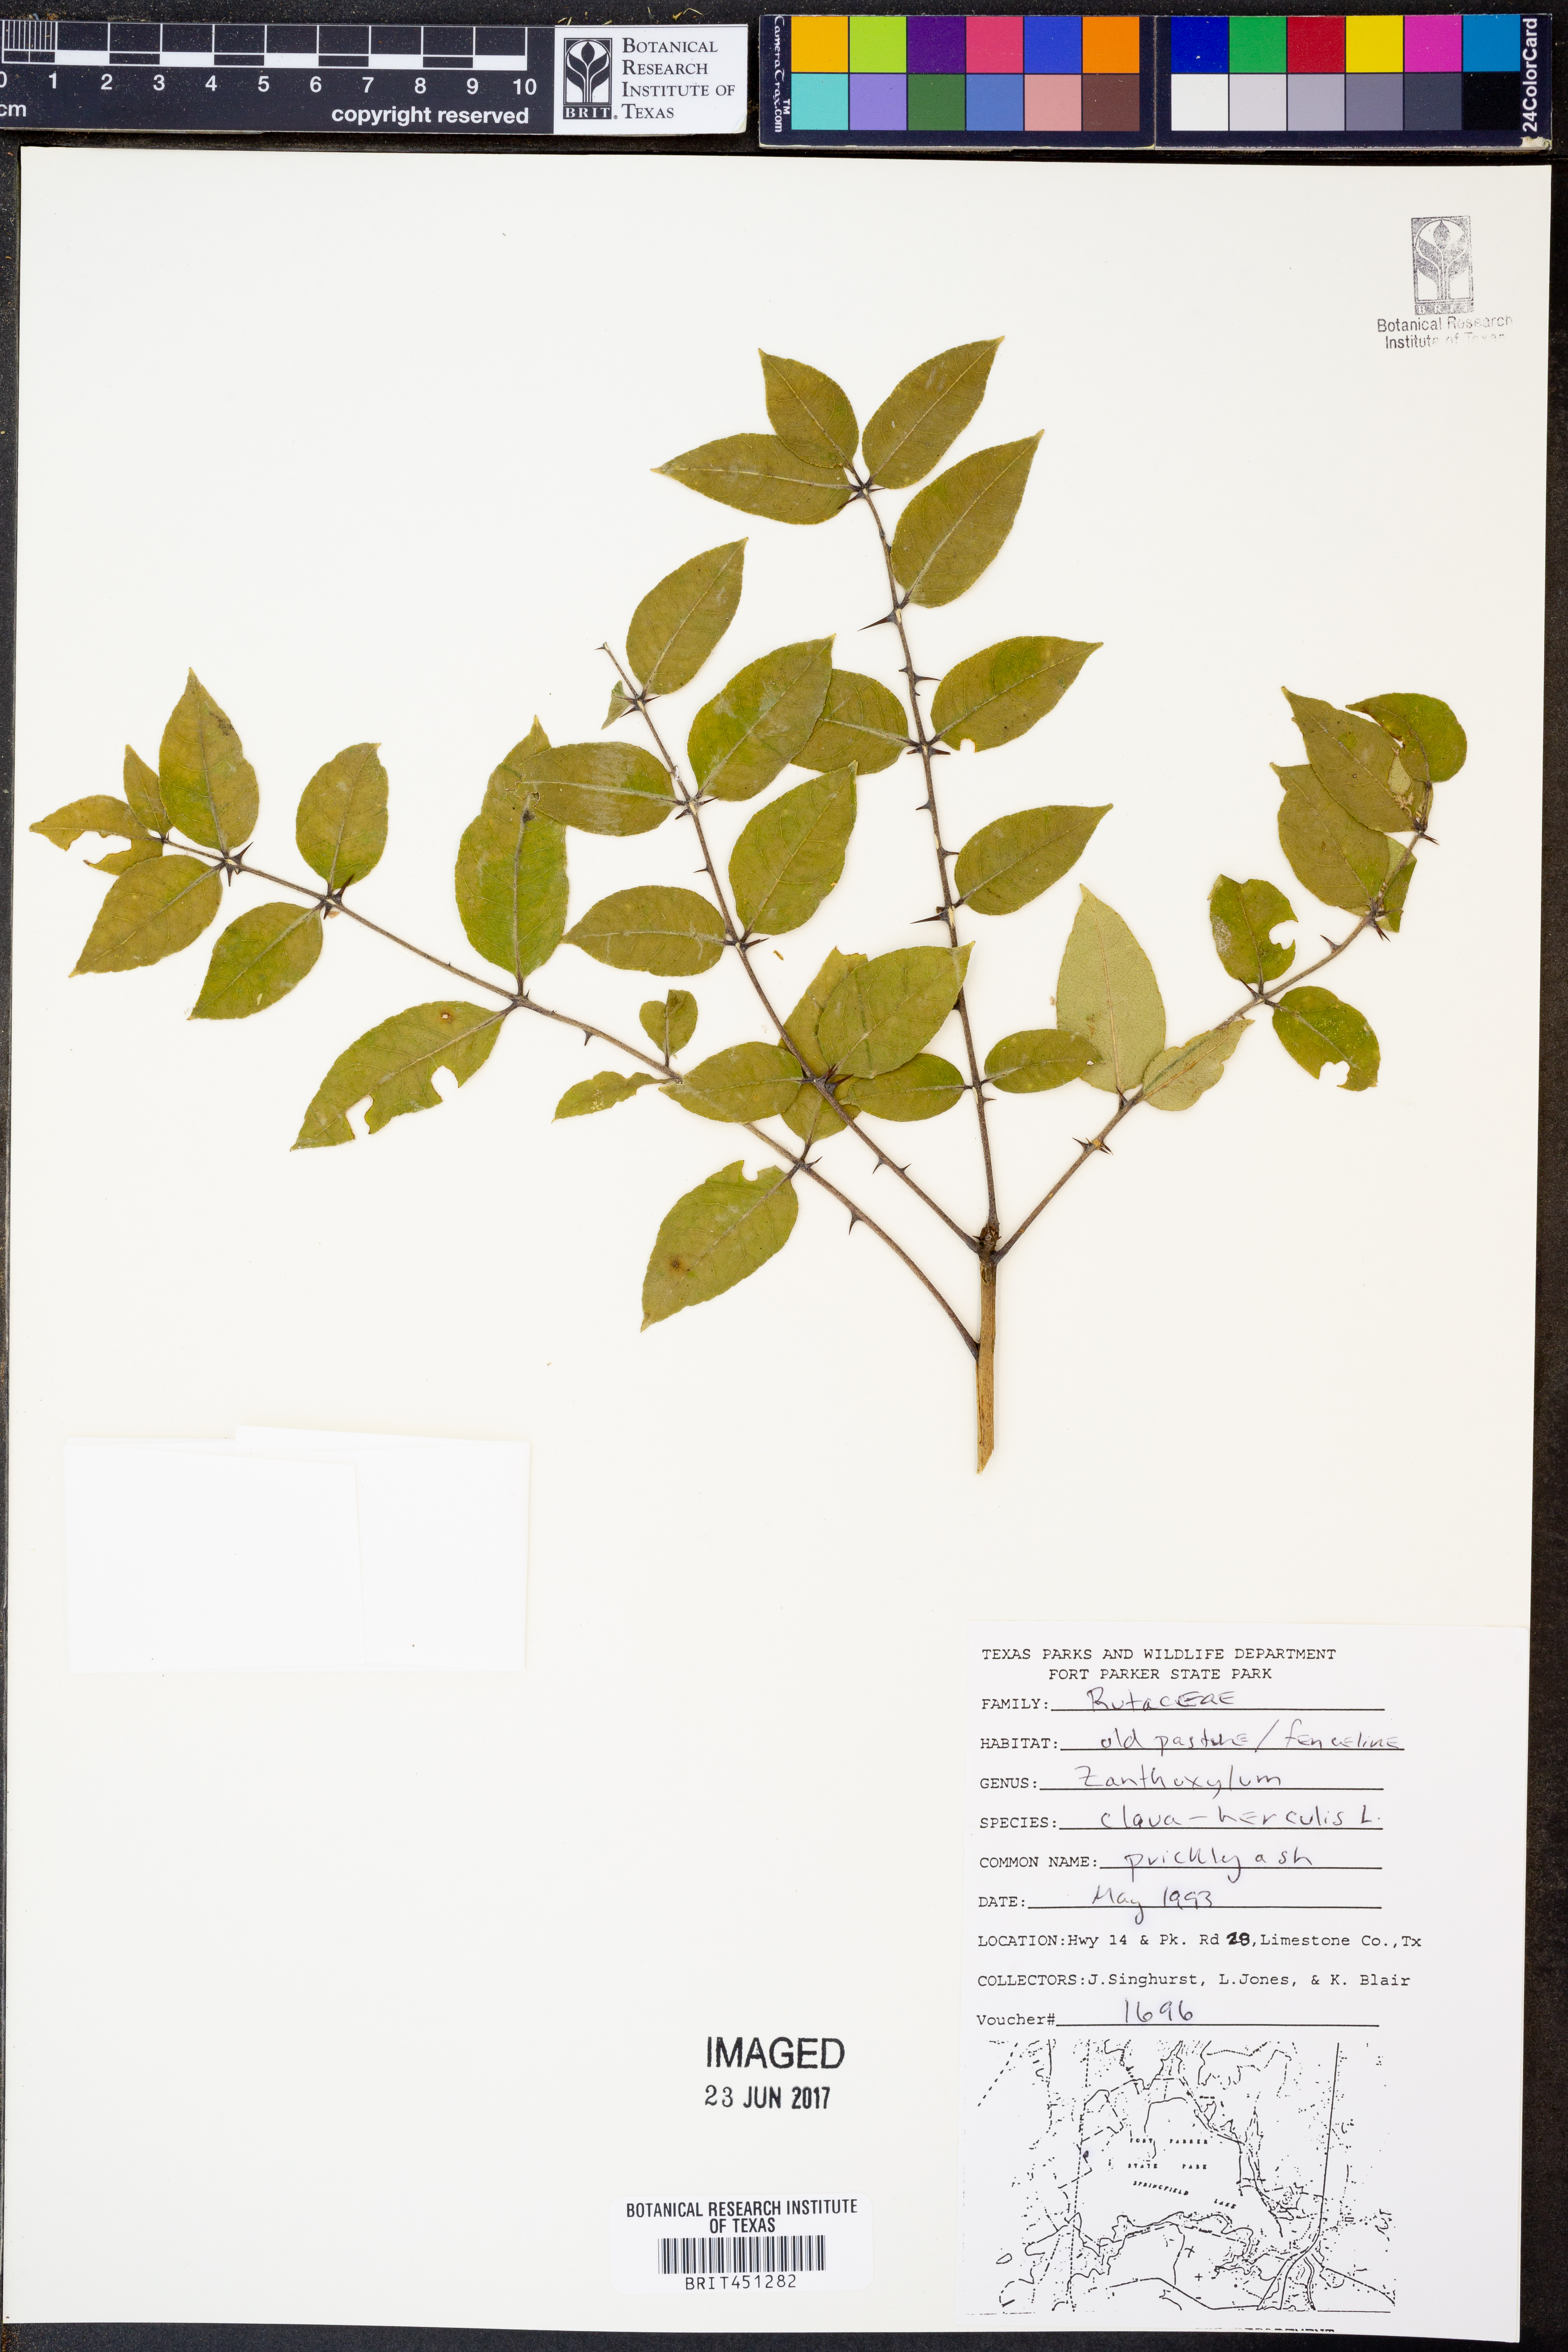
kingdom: Plantae
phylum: Tracheophyta
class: Magnoliopsida
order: Sapindales
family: Rutaceae
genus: Zanthoxylum
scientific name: Zanthoxylum avicennae
